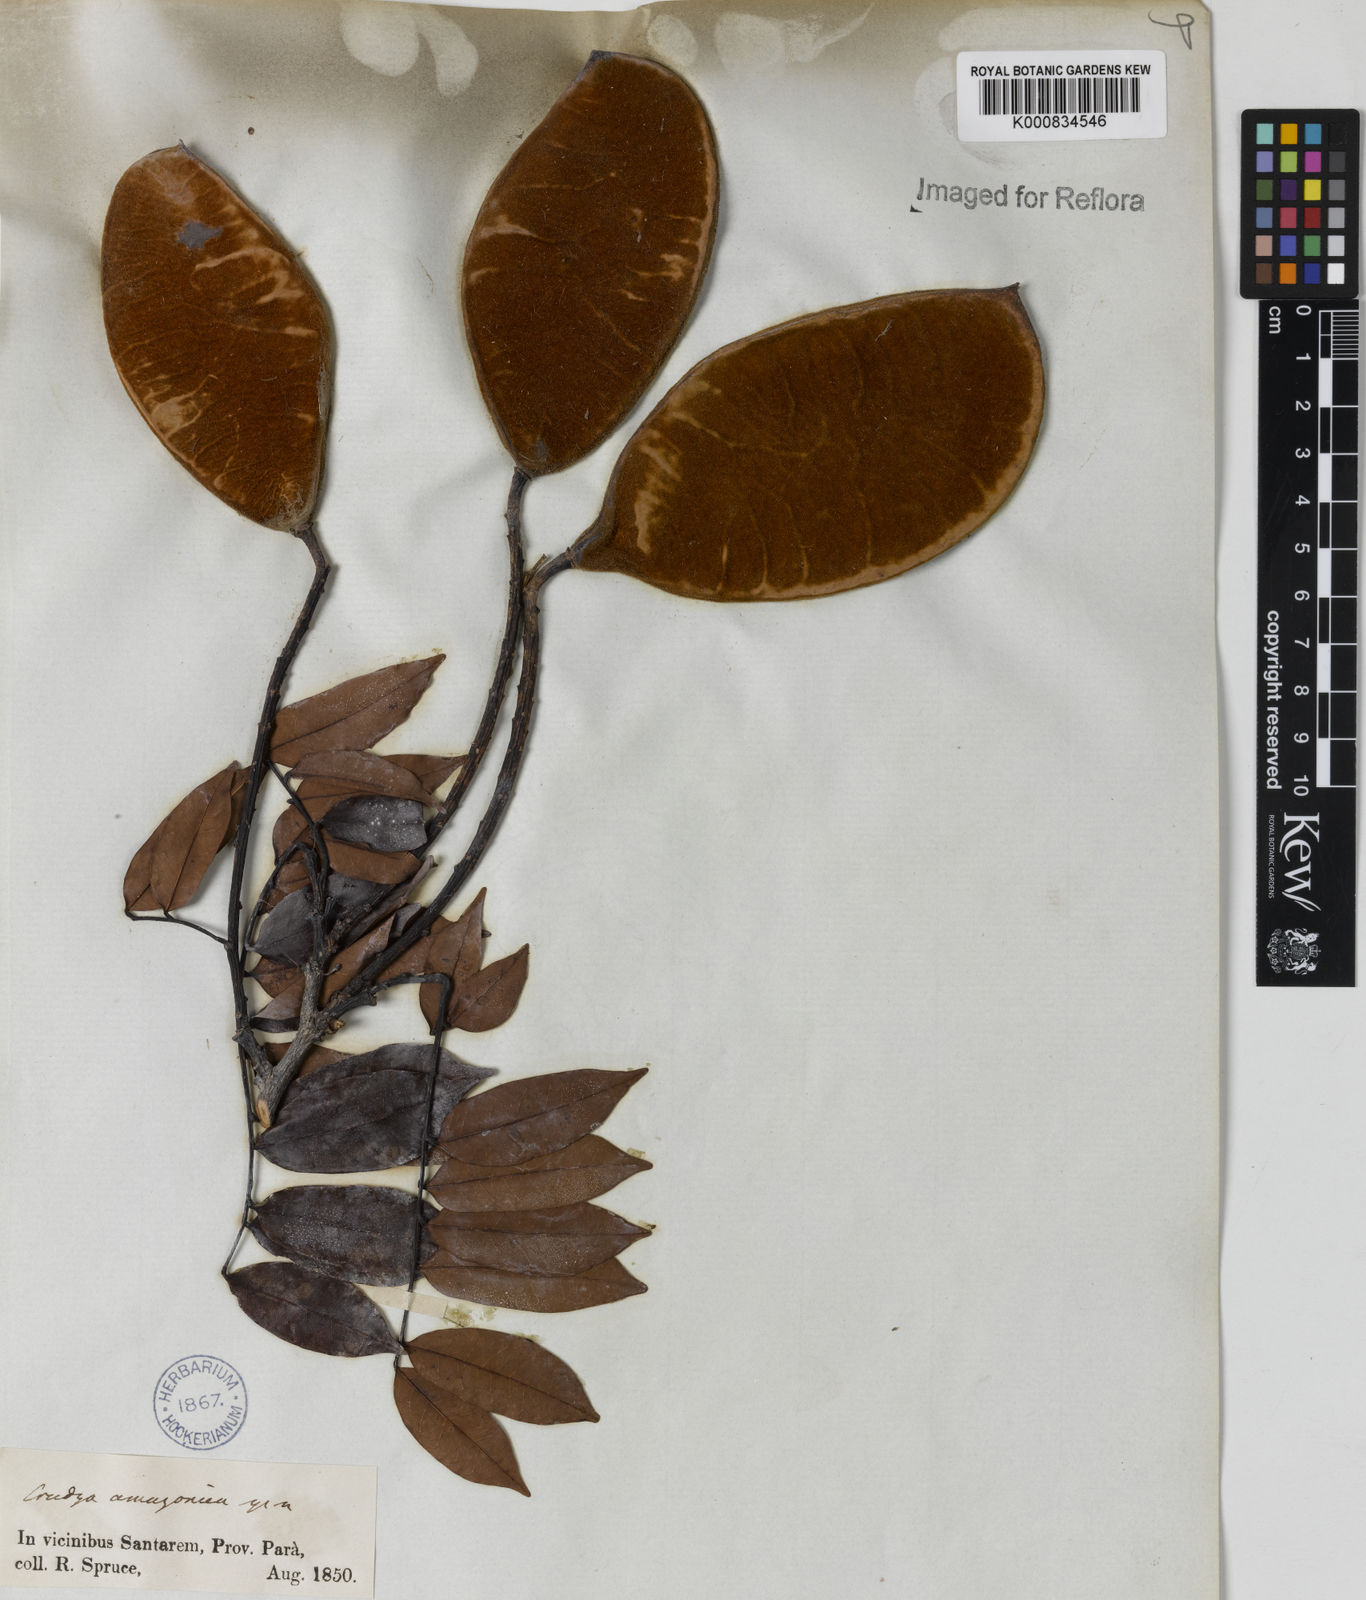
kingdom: Plantae
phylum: Tracheophyta
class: Magnoliopsida
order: Fabales
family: Fabaceae
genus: Crudia
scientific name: Crudia
